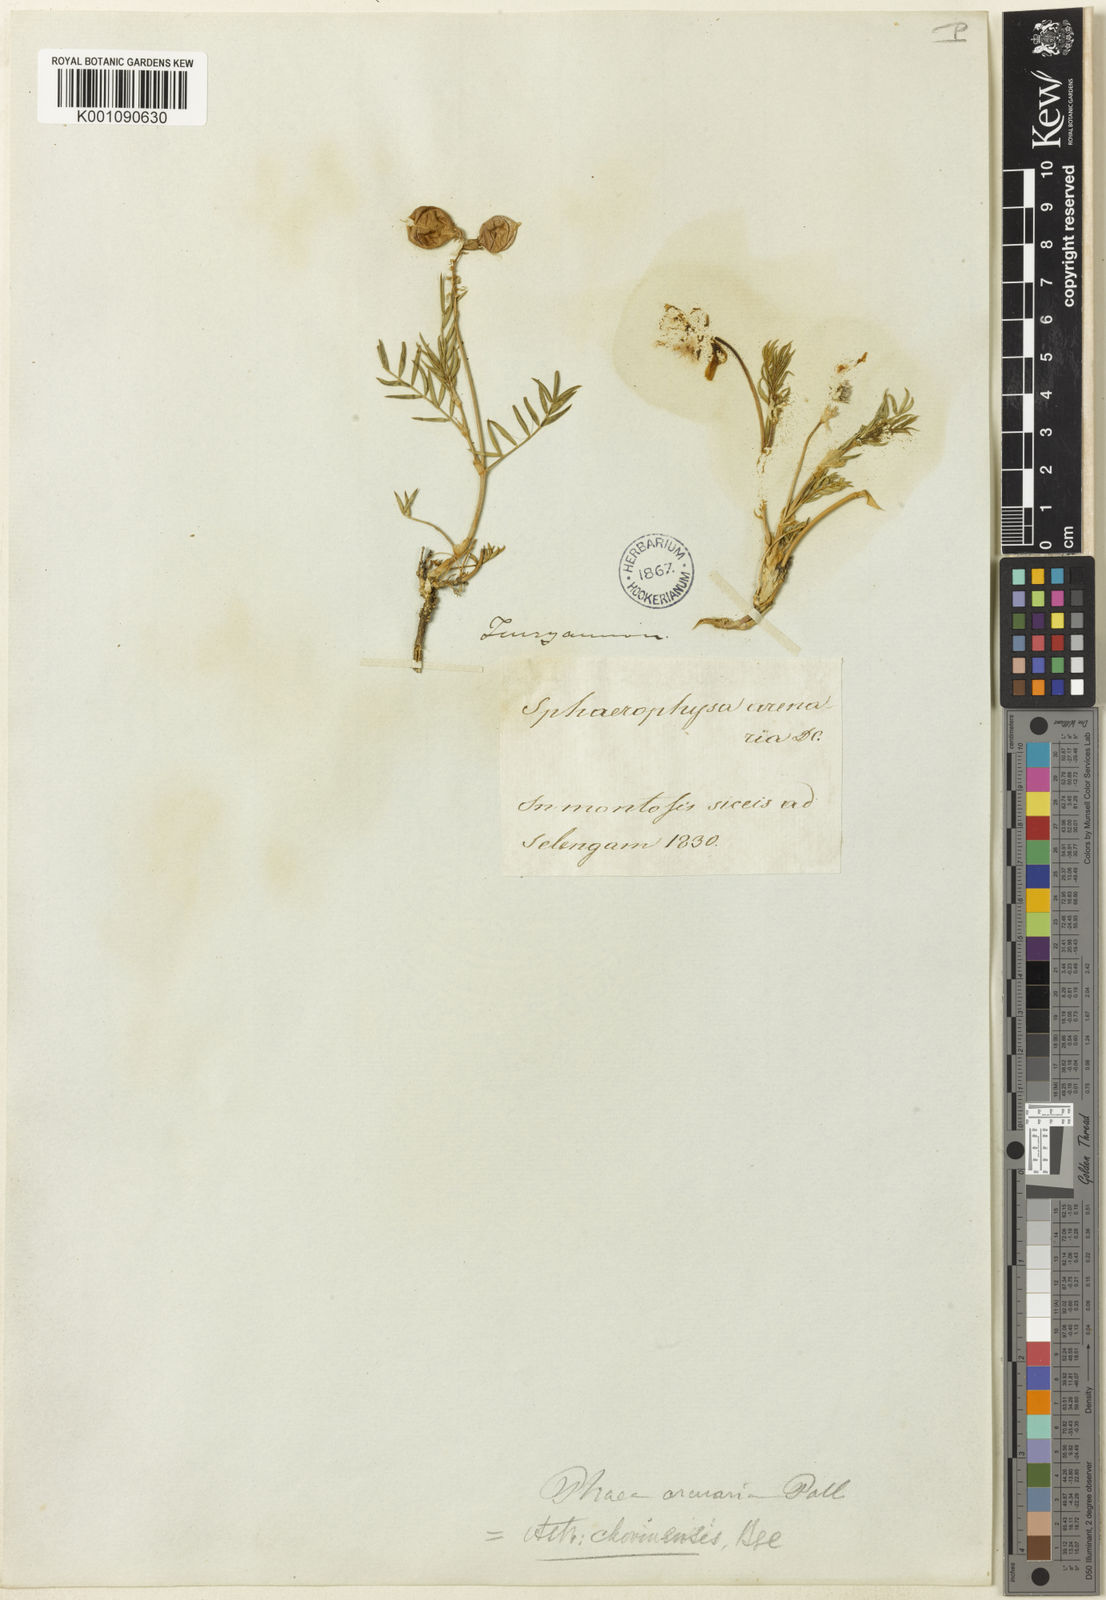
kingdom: Plantae
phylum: Tracheophyta
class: Magnoliopsida
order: Fabales
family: Fabaceae
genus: Astragalus
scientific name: Astragalus
